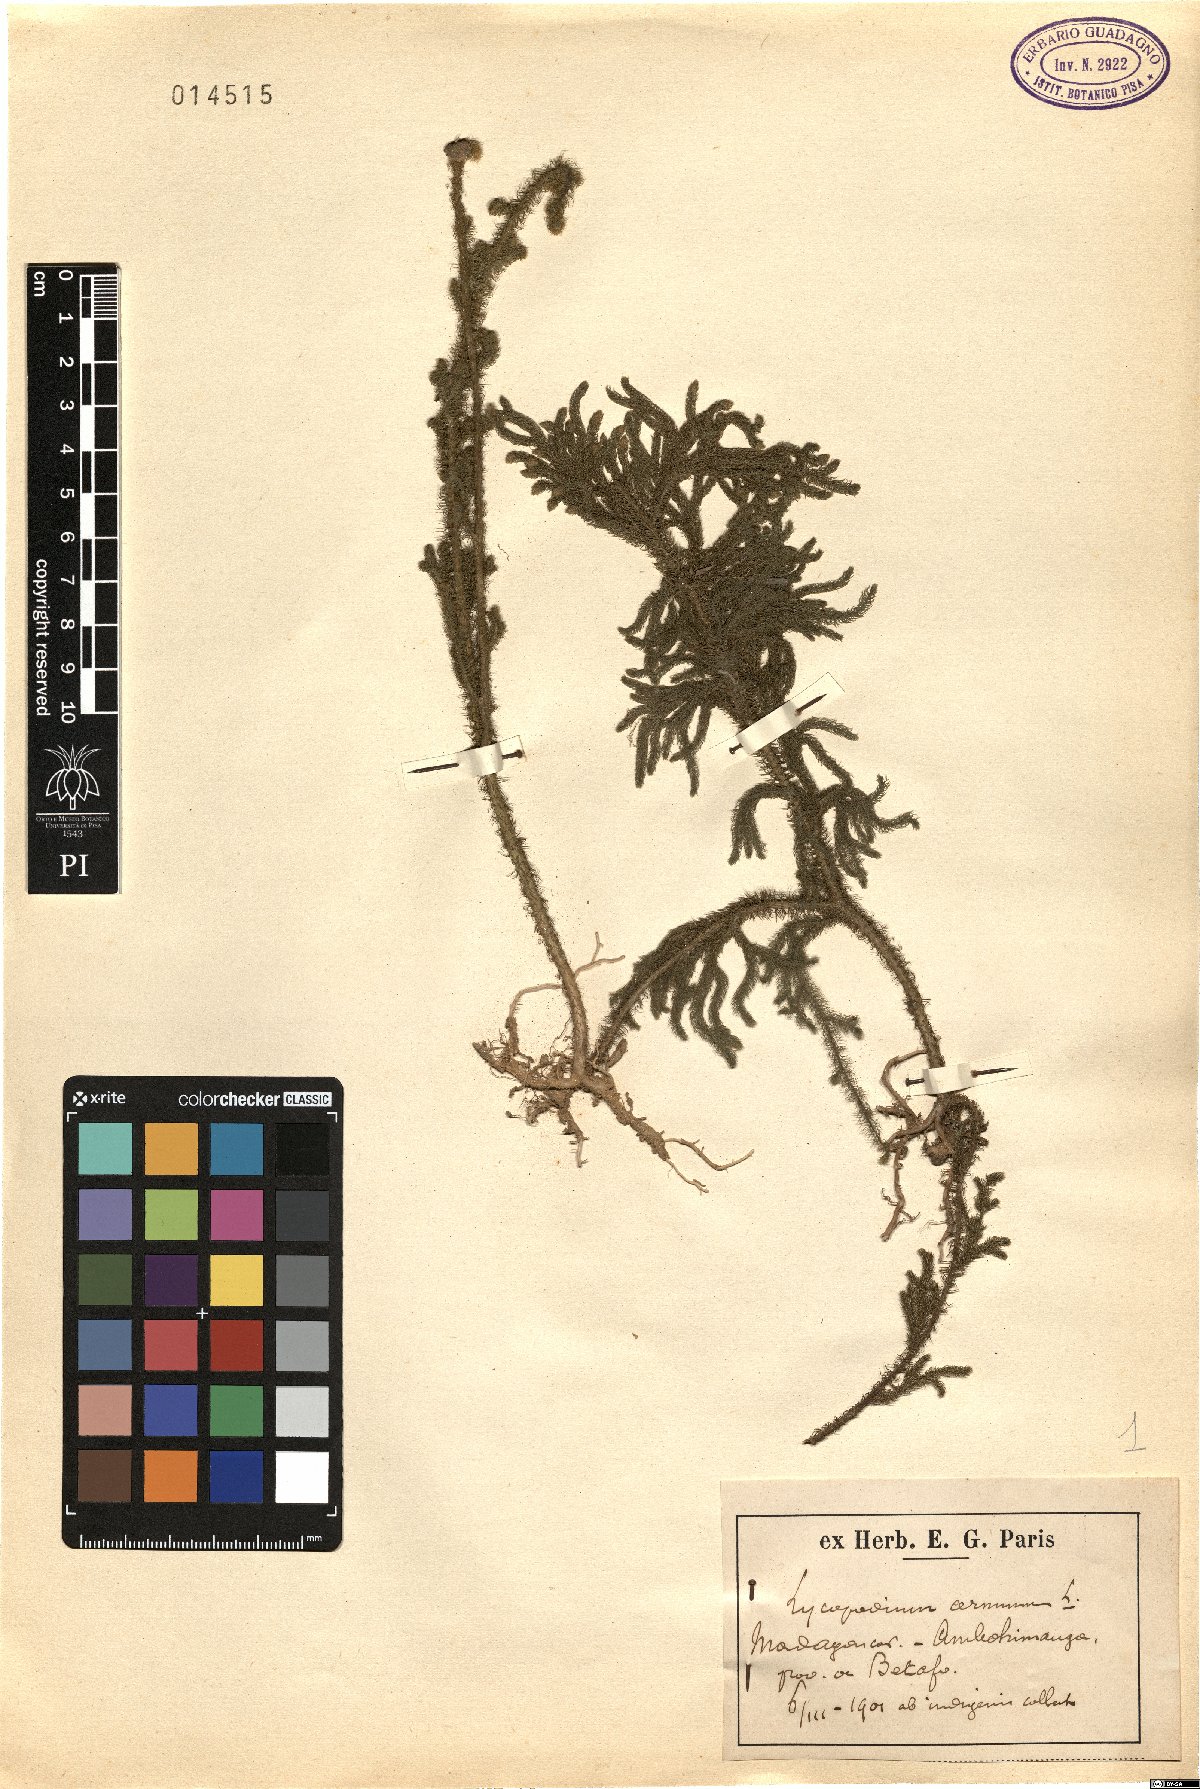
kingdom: Plantae
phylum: Tracheophyta
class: Lycopodiopsida
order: Lycopodiales
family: Lycopodiaceae
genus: Palhinhaea
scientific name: Palhinhaea cernua
